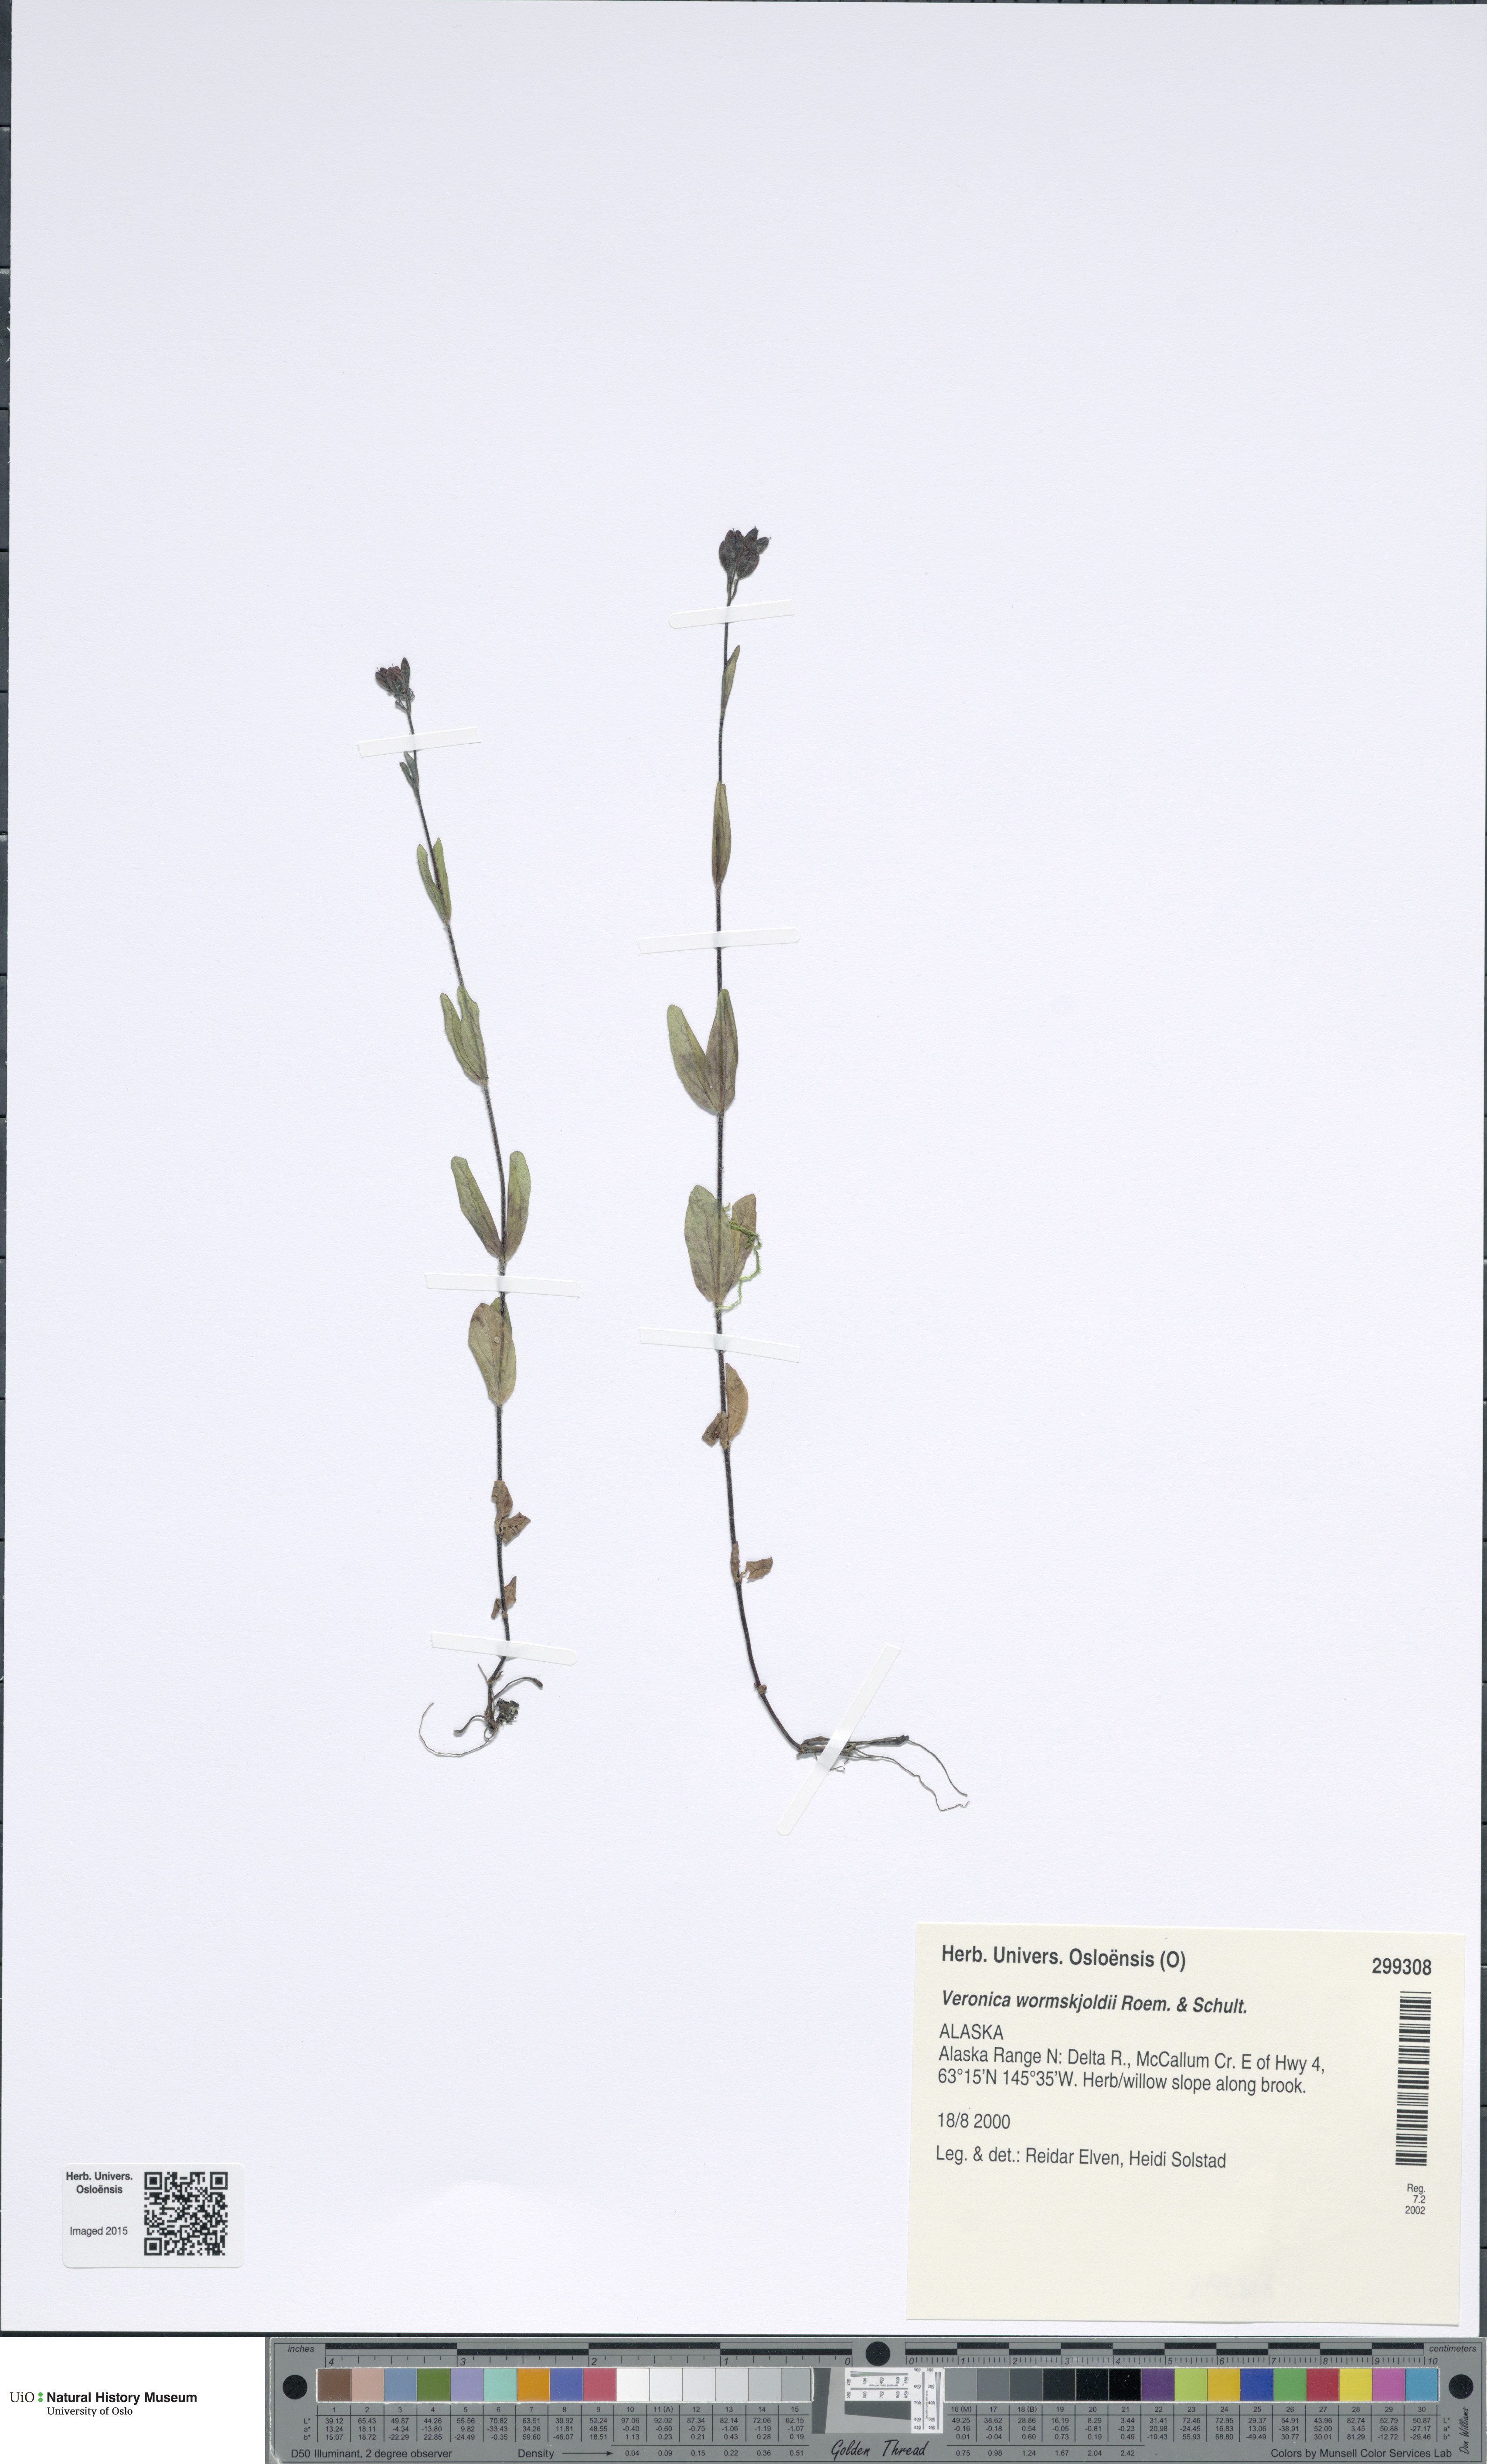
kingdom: Plantae
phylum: Tracheophyta
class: Magnoliopsida
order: Lamiales
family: Plantaginaceae
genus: Veronica
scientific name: Veronica wormskjoldii
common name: American alpine speedwell
